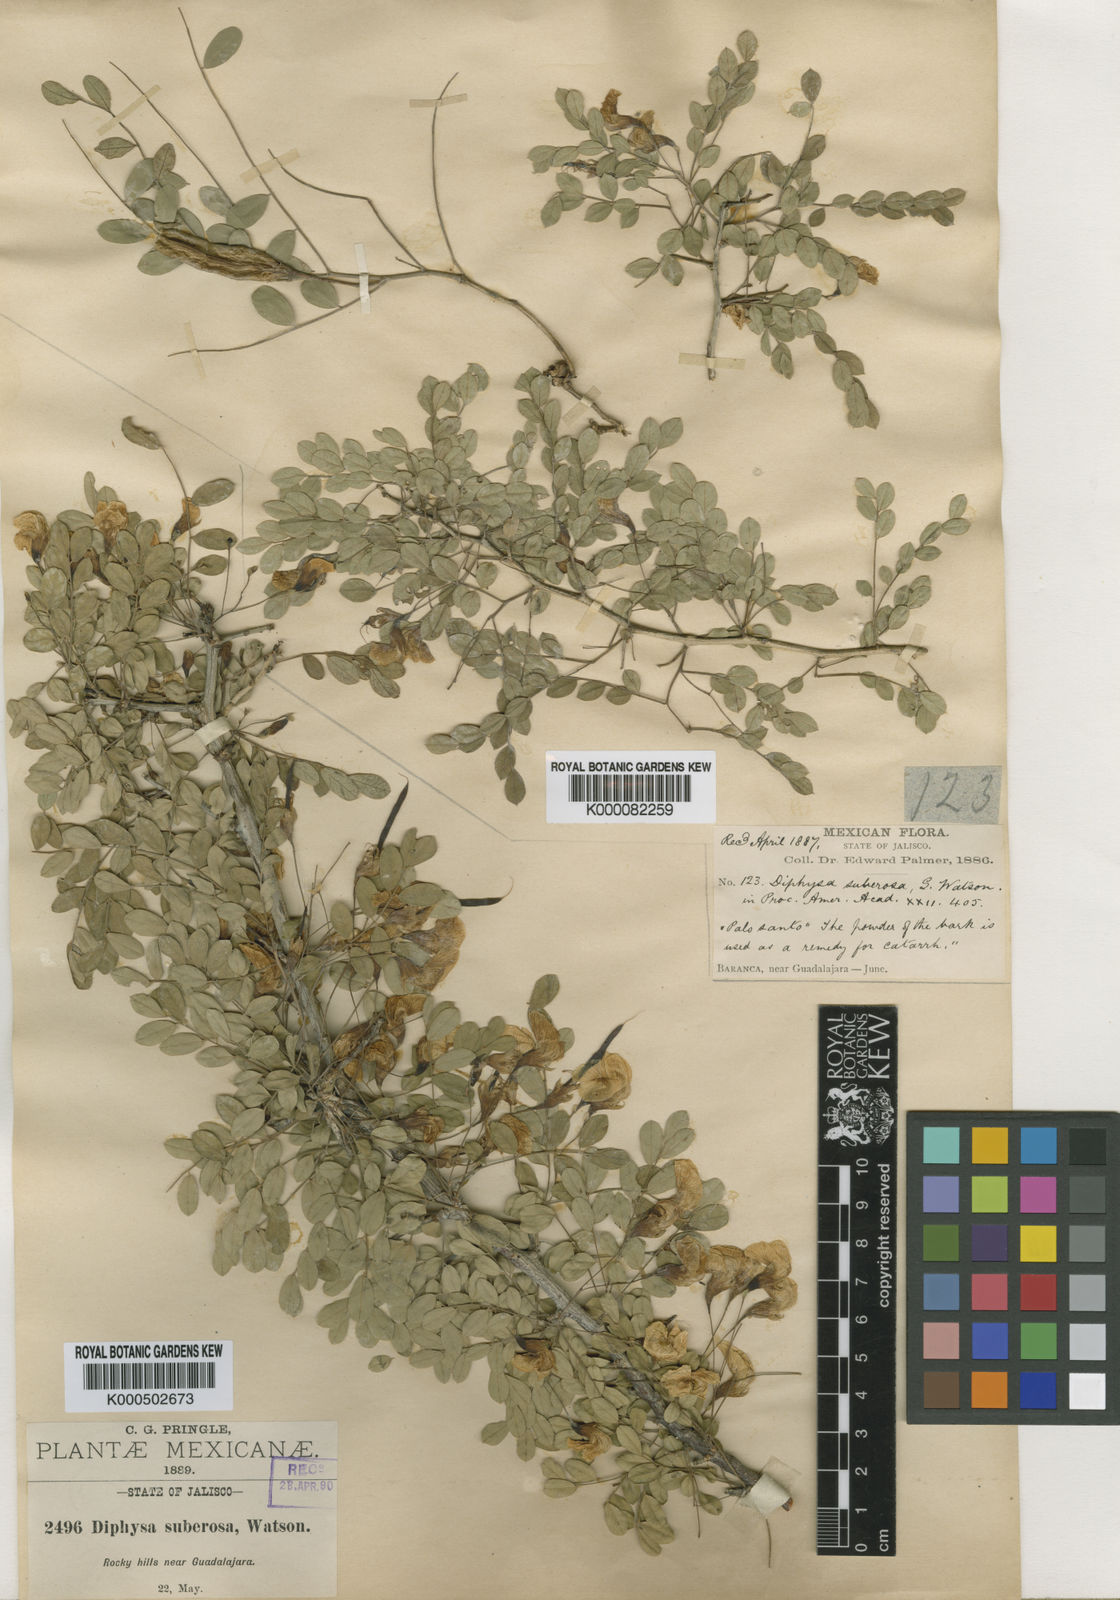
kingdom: Plantae
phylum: Tracheophyta
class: Magnoliopsida
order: Fabales
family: Fabaceae
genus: Diphysa
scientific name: Diphysa suberosa
